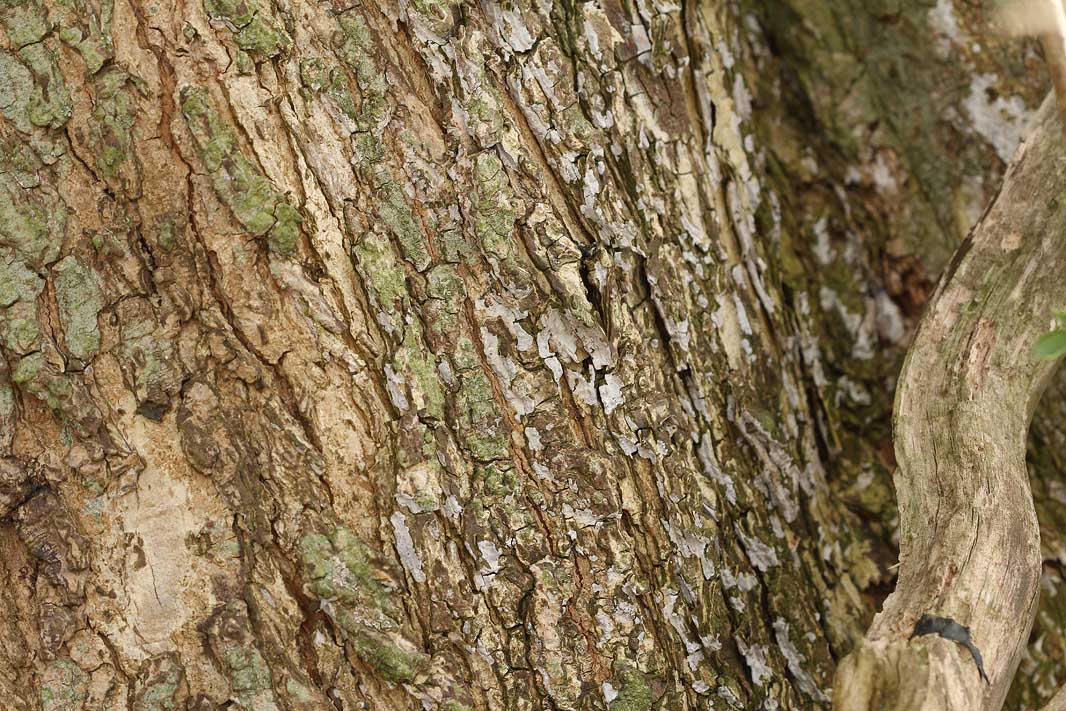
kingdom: Fungi
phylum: Basidiomycota
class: Agaricomycetes
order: Agaricales
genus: Dendrothele
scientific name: Dendrothele acerina
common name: navr-kalkplet
